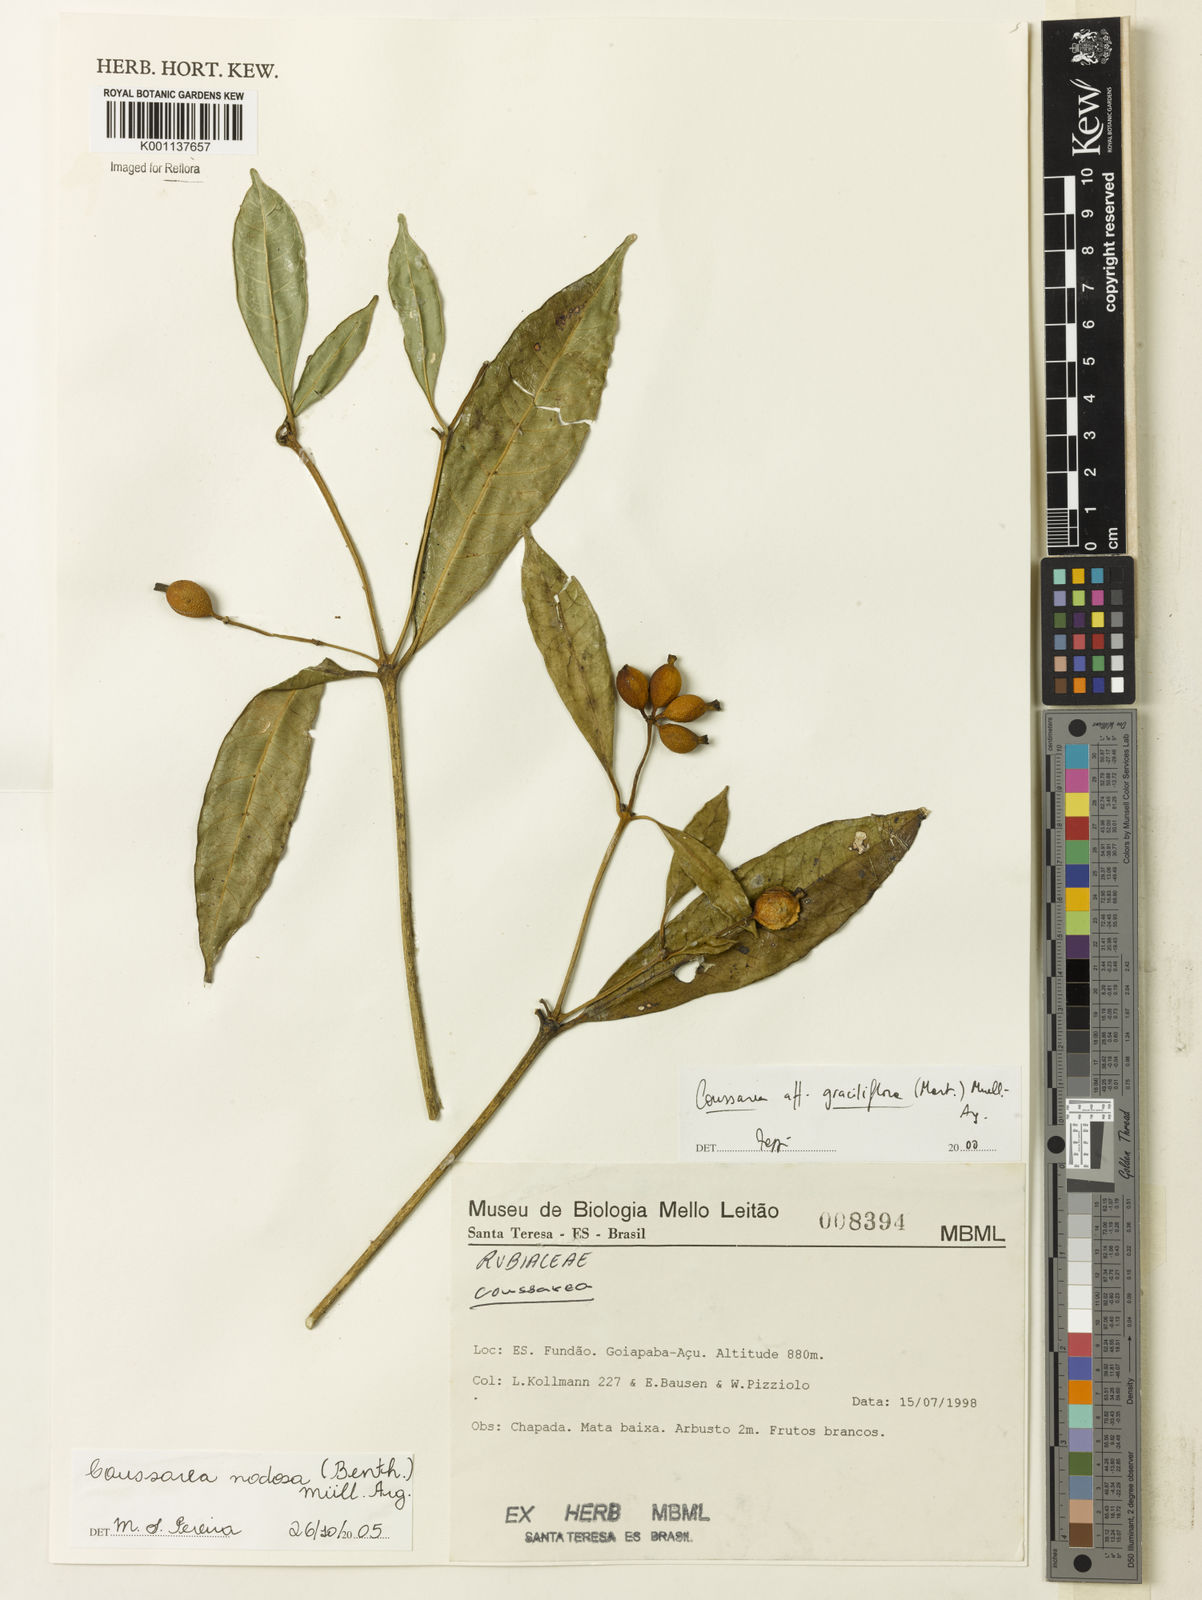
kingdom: Plantae
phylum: Tracheophyta
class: Magnoliopsida
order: Gentianales
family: Rubiaceae
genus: Coussarea
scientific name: Coussarea
